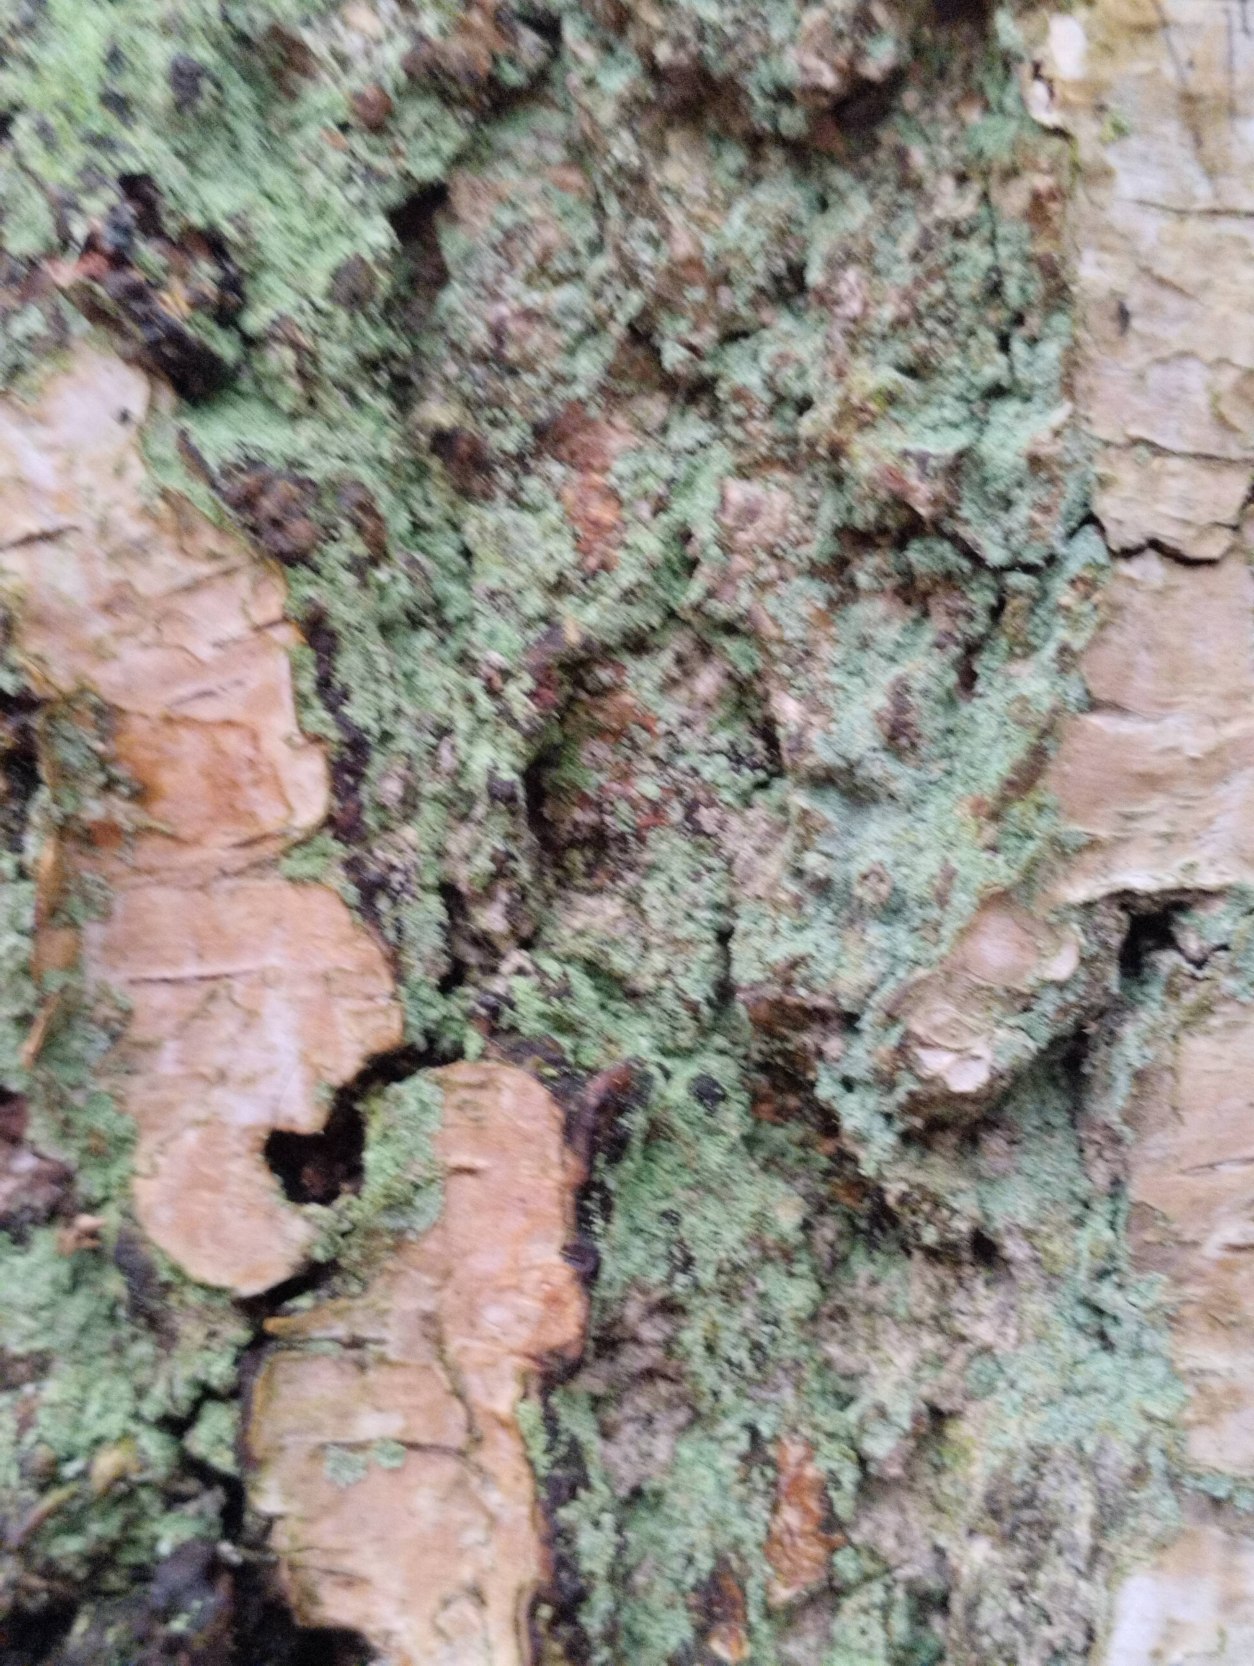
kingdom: Fungi
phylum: Ascomycota
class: Lecanoromycetes
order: Lecanorales
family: Stereocaulaceae
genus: Lepraria
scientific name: Lepraria
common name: Støvlav
